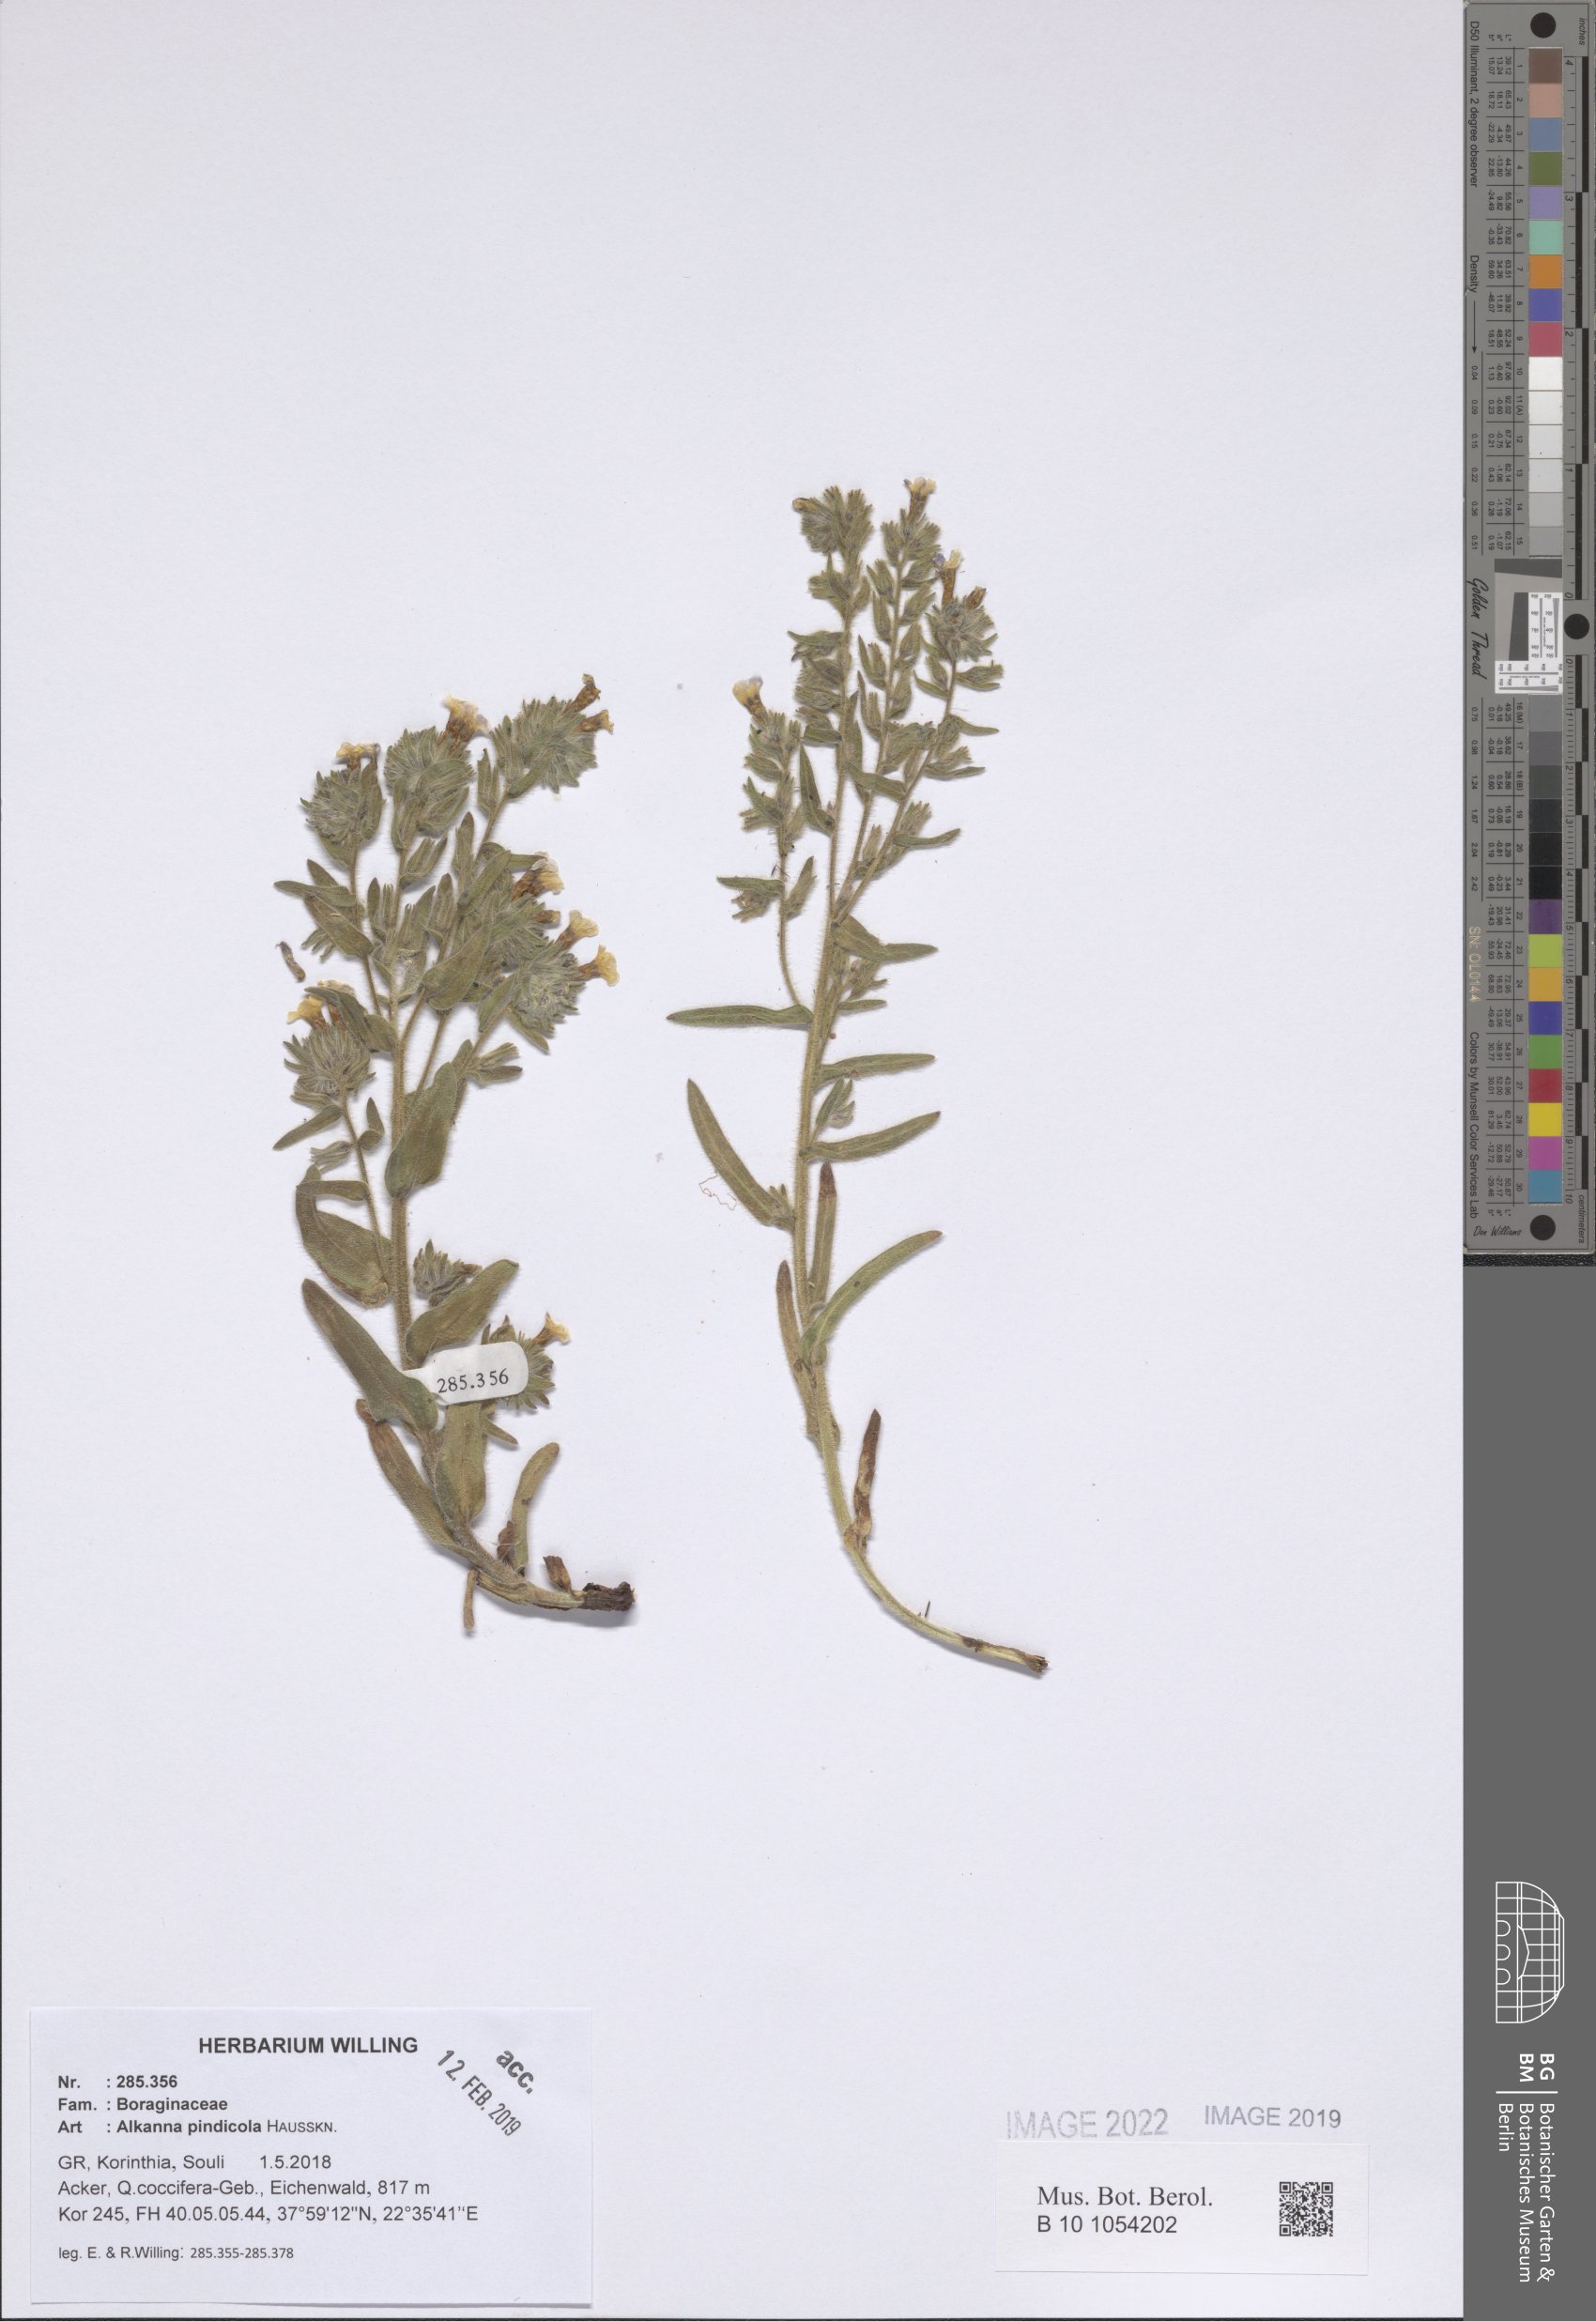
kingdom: Plantae
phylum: Tracheophyta
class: Magnoliopsida
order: Boraginales
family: Boraginaceae
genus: Alkanna
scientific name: Alkanna pindicola
